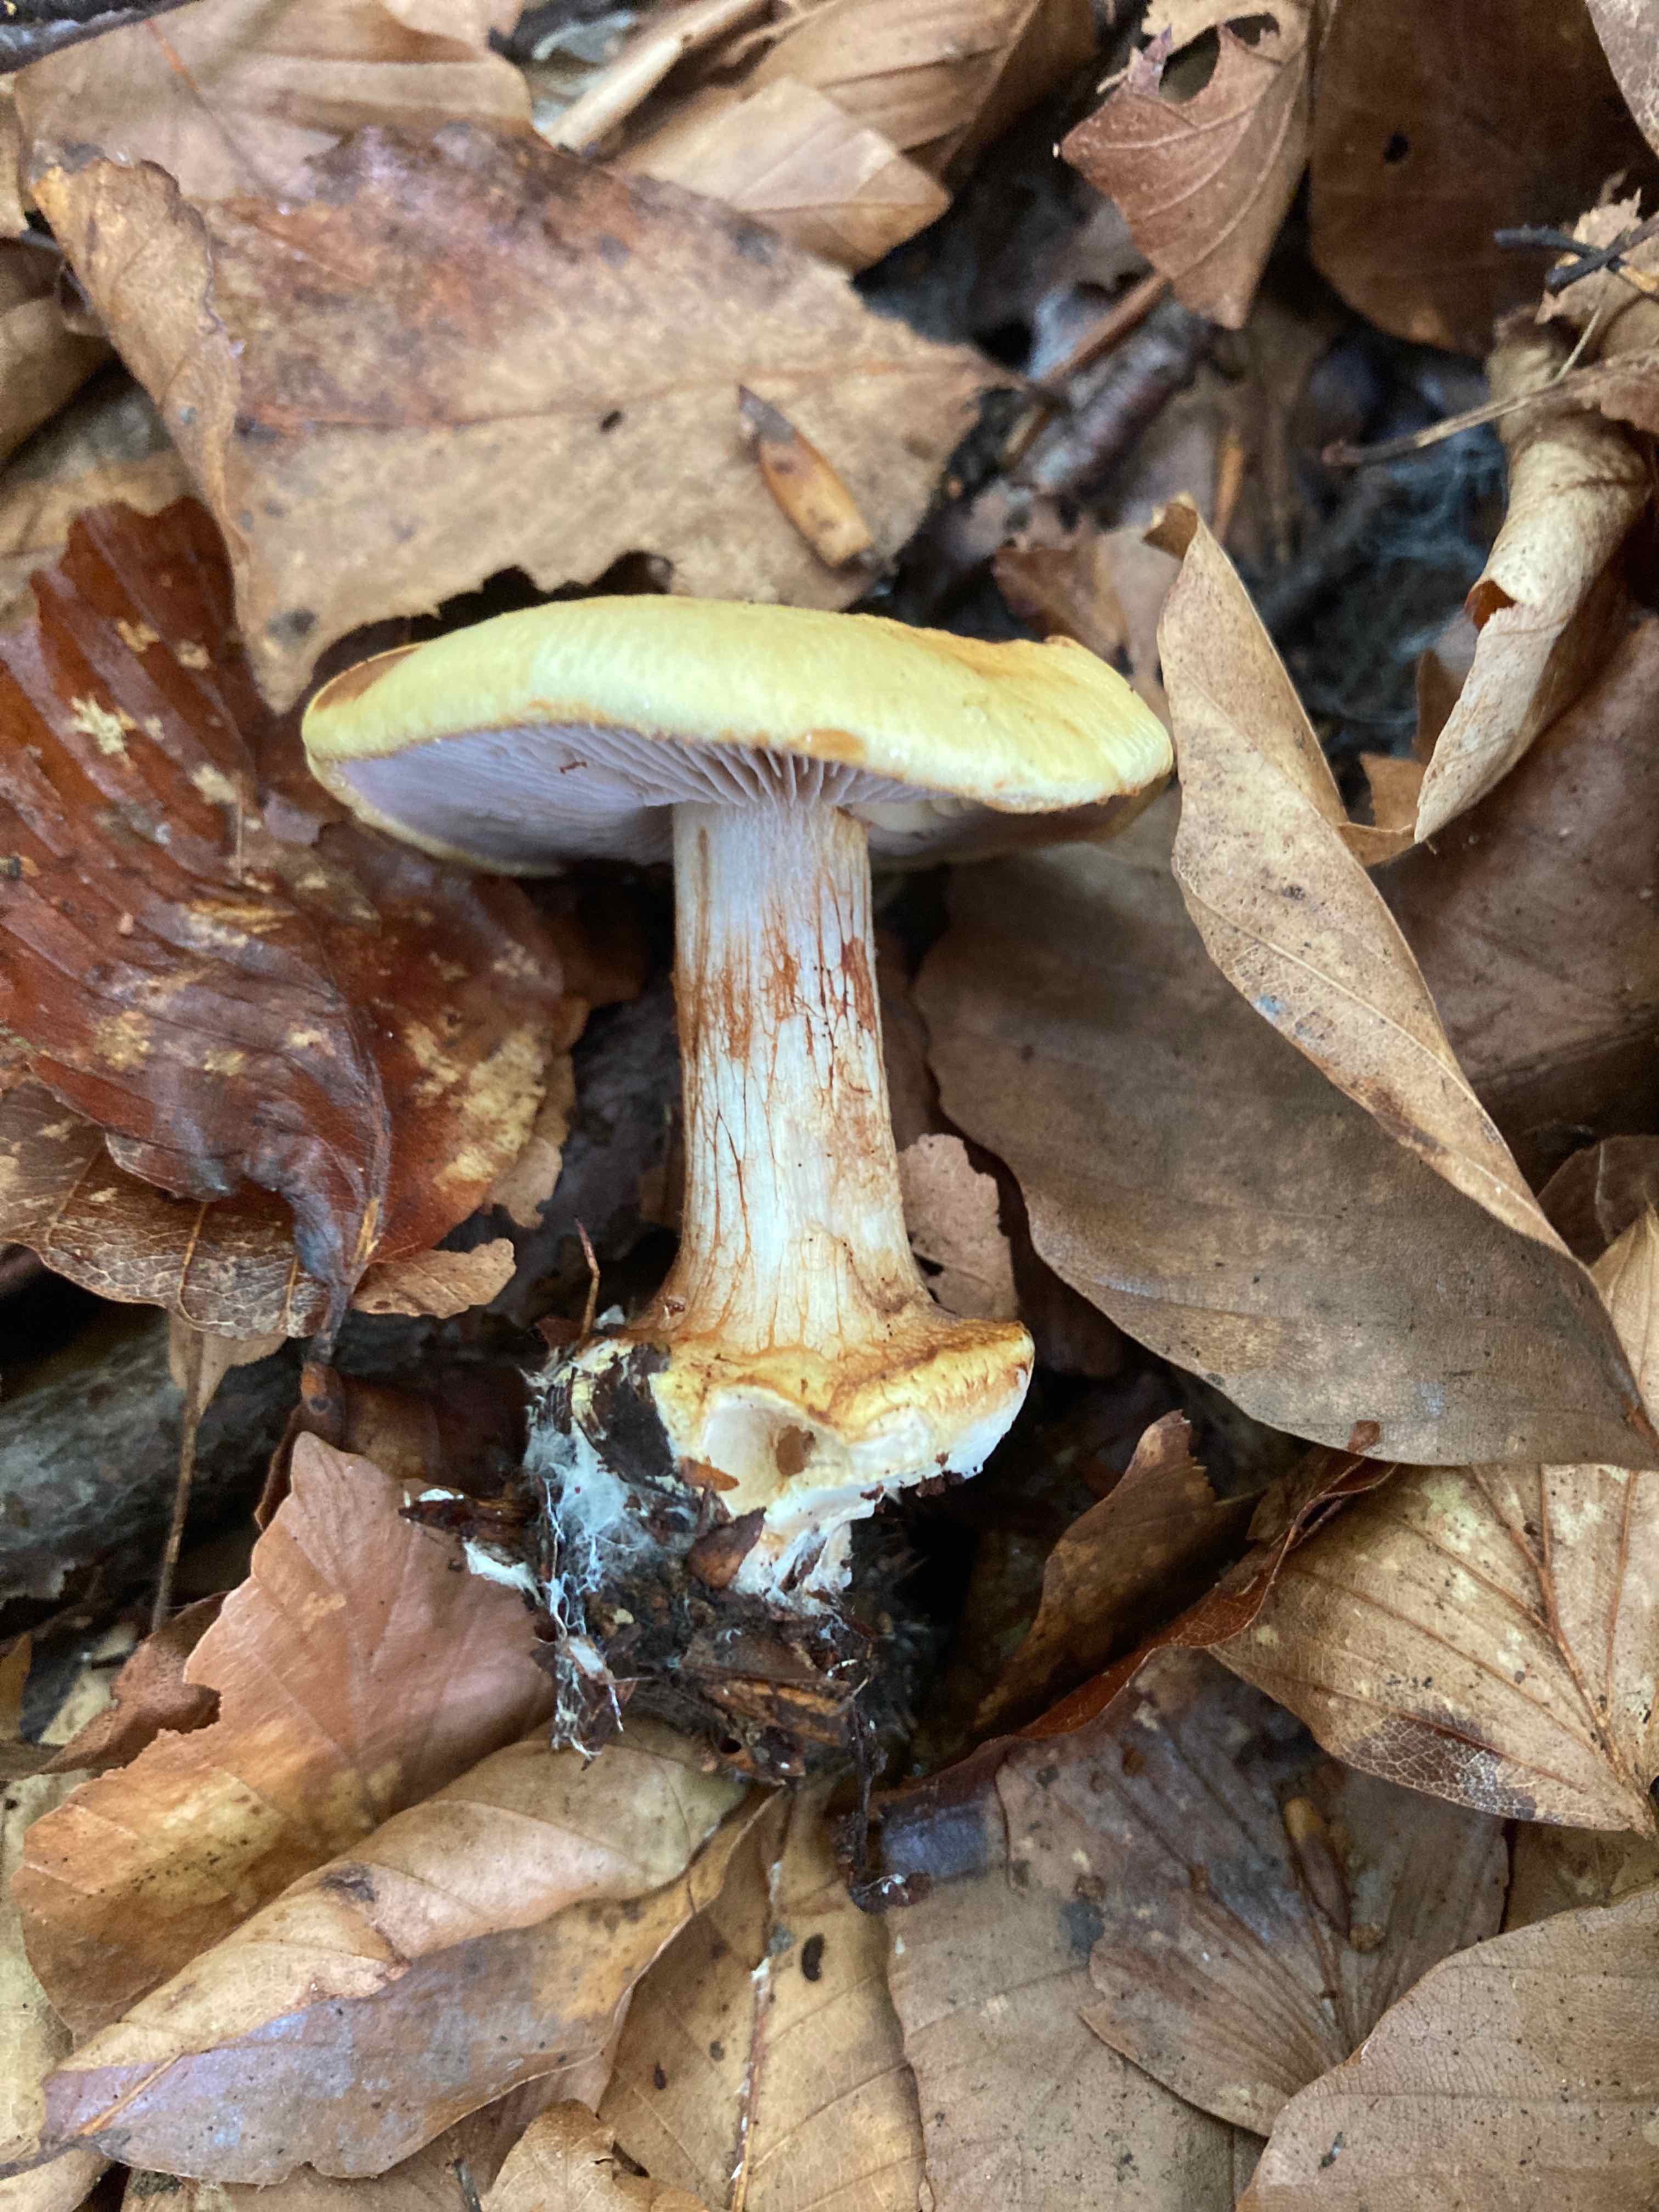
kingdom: Fungi
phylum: Basidiomycota
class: Agaricomycetes
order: Agaricales
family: Cortinariaceae
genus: Calonarius
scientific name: Calonarius callochrous
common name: lillabladet slørhat
